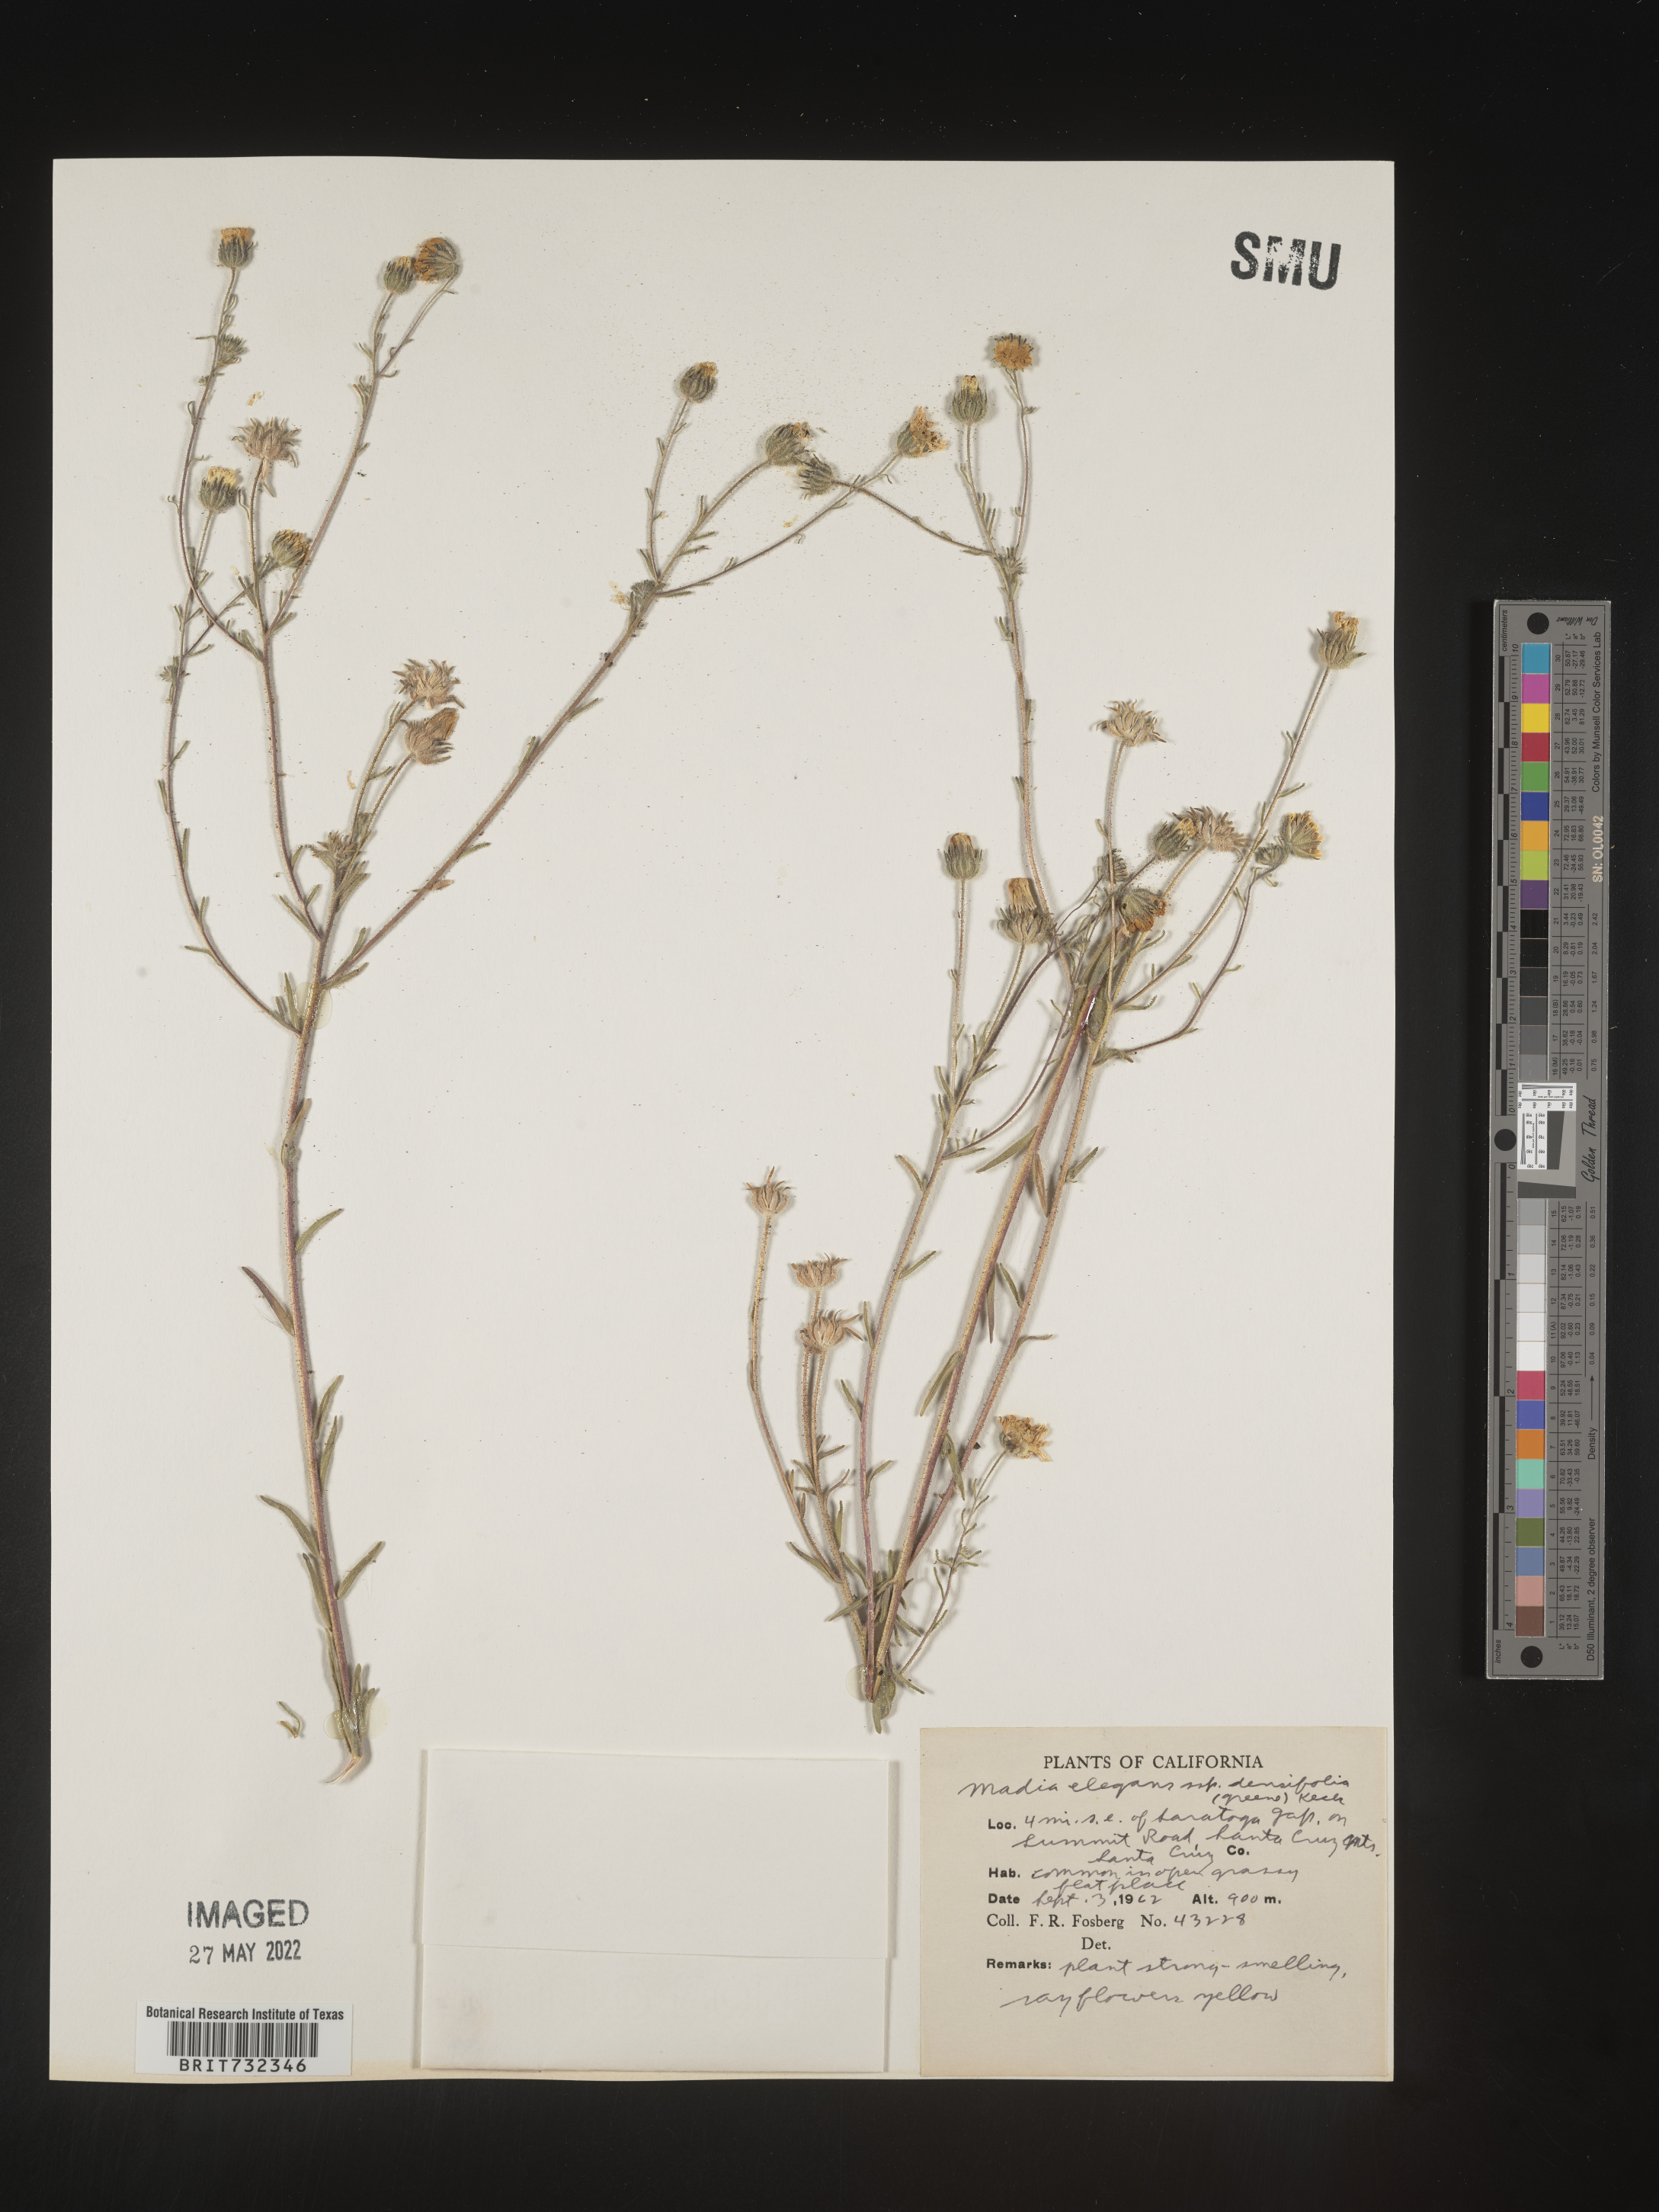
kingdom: Plantae
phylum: Tracheophyta
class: Magnoliopsida
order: Asterales
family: Asteraceae
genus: Madia
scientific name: Madia
